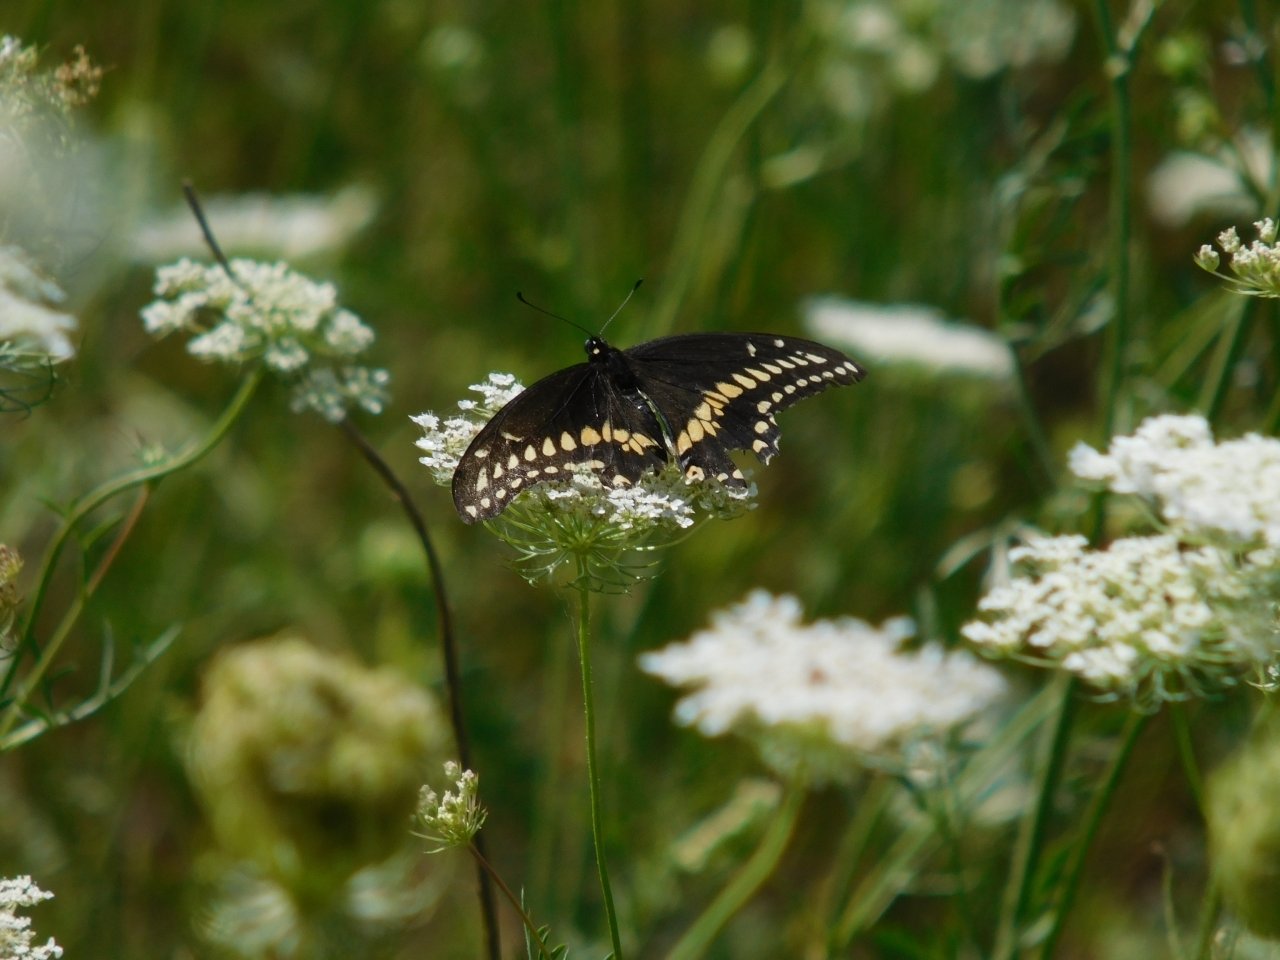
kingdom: Animalia
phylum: Arthropoda
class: Insecta
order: Lepidoptera
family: Papilionidae
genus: Papilio
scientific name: Papilio polyxenes
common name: Black Swallowtail
